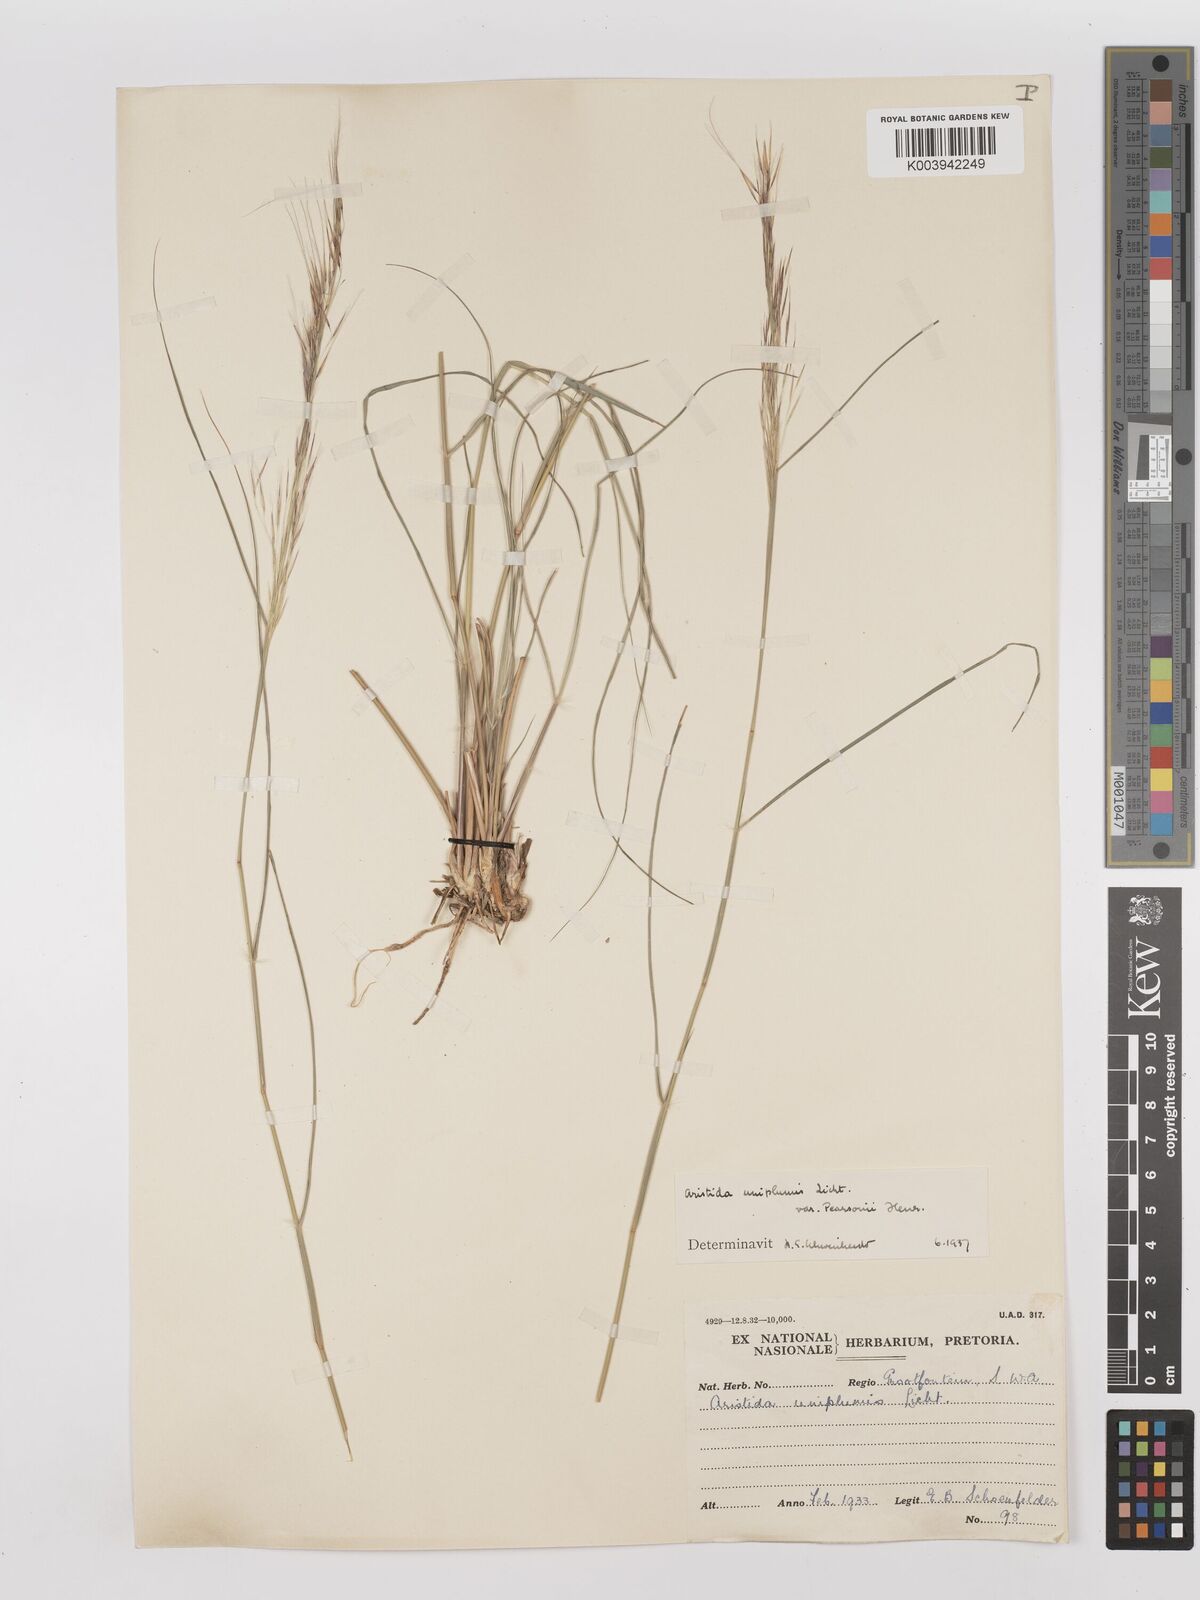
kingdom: Plantae
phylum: Tracheophyta
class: Liliopsida
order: Poales
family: Poaceae
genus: Stipagrostis
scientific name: Stipagrostis uniplumis
